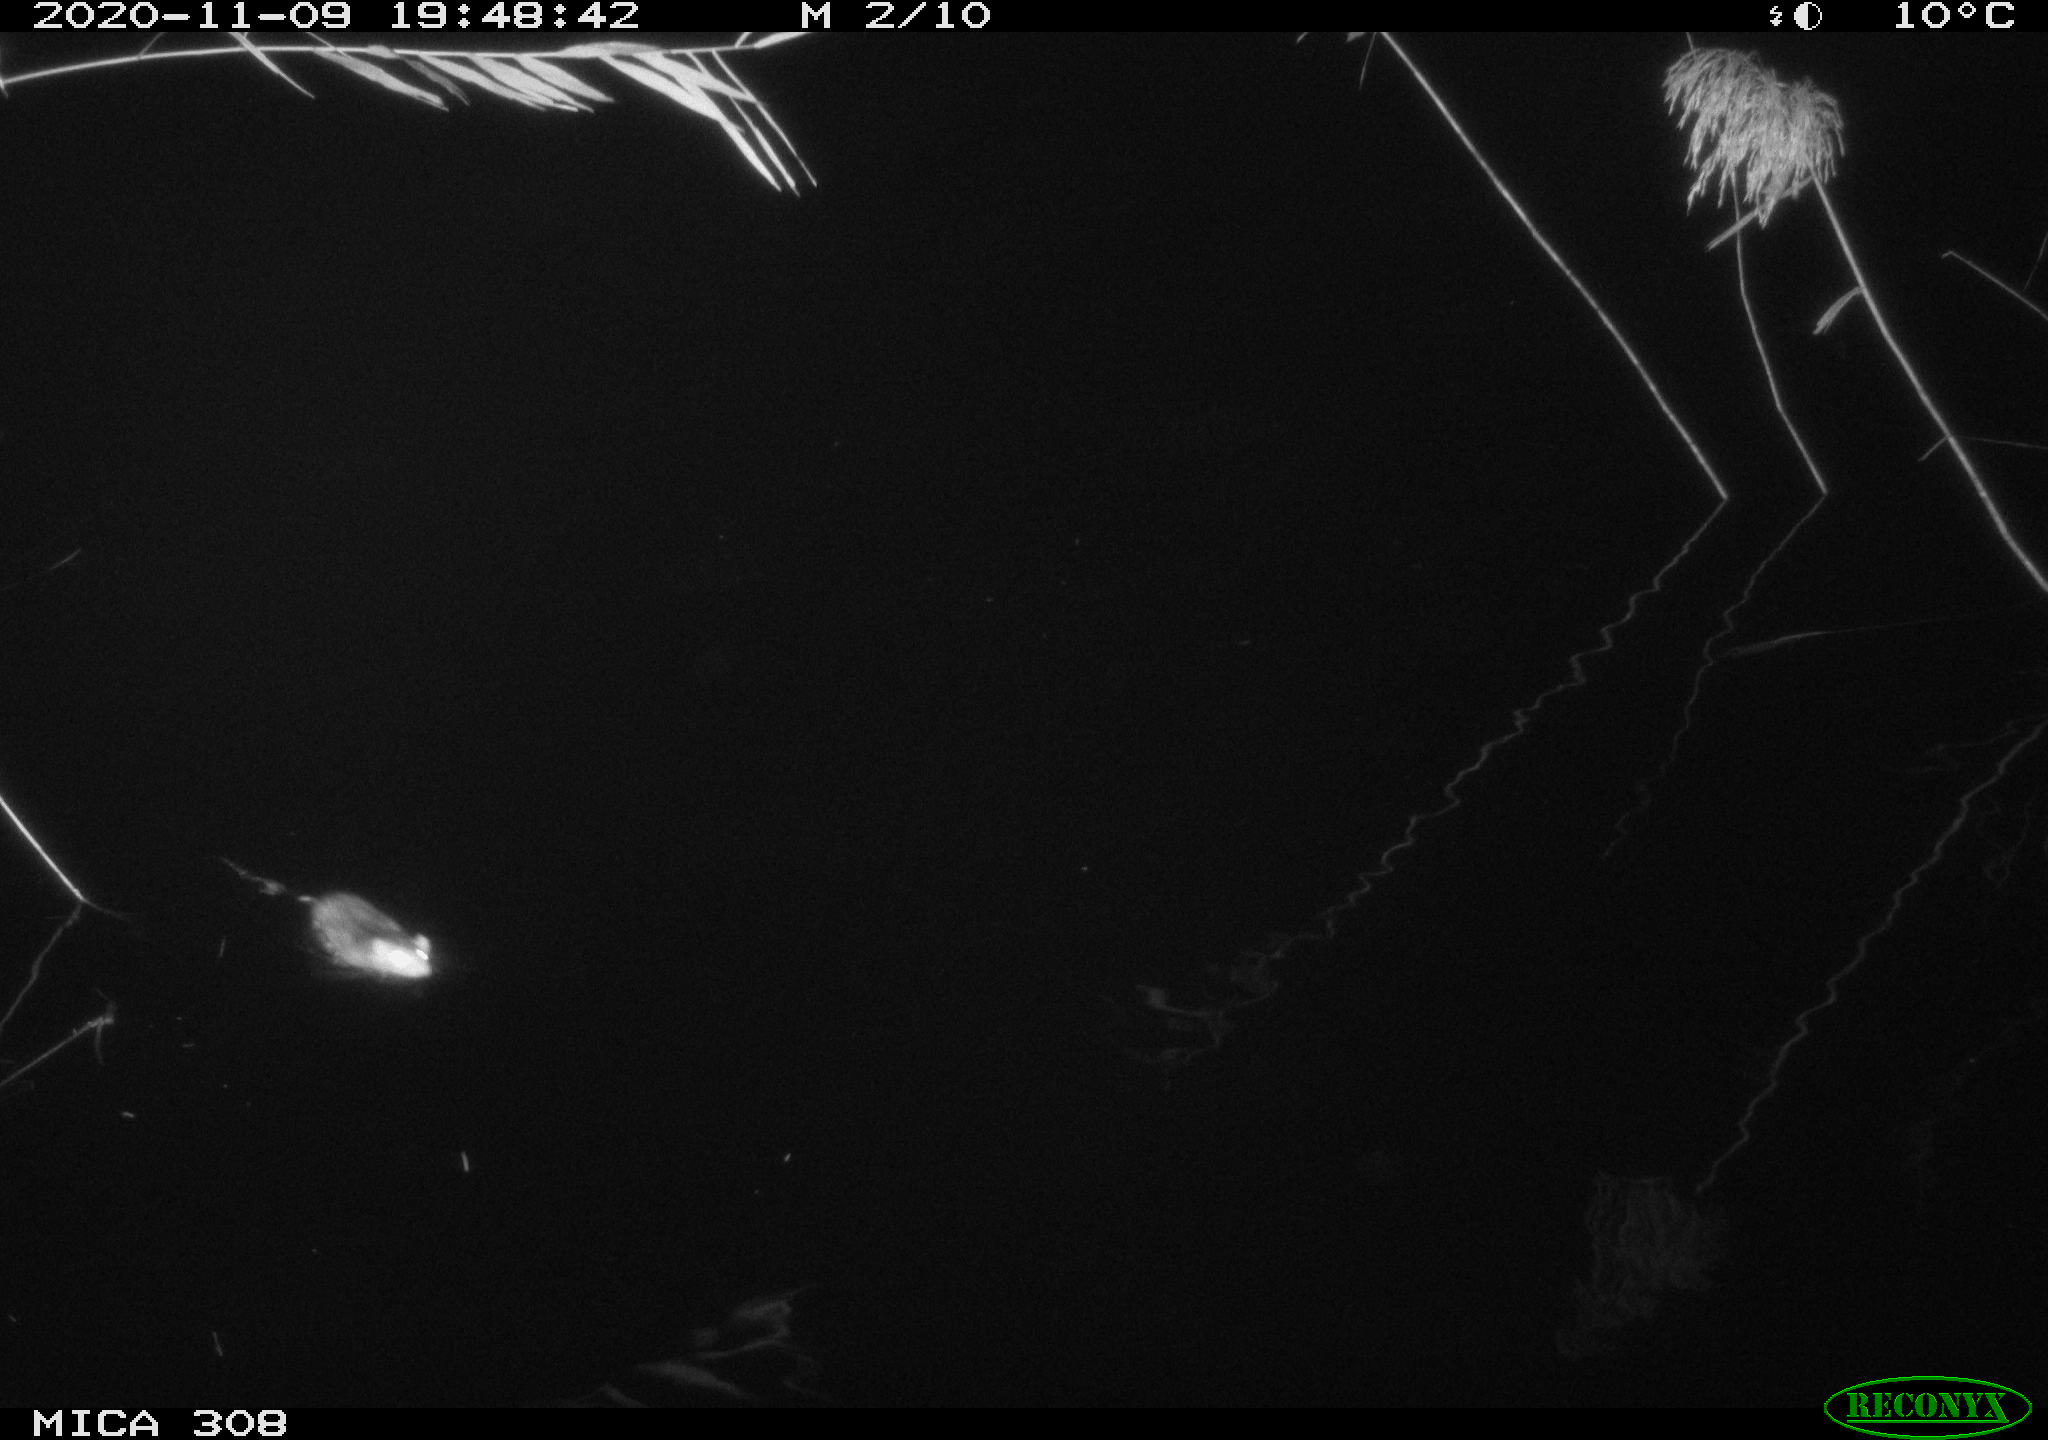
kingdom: Animalia
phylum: Chordata
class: Mammalia
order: Rodentia
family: Muridae
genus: Rattus
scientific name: Rattus norvegicus
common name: Brown rat
